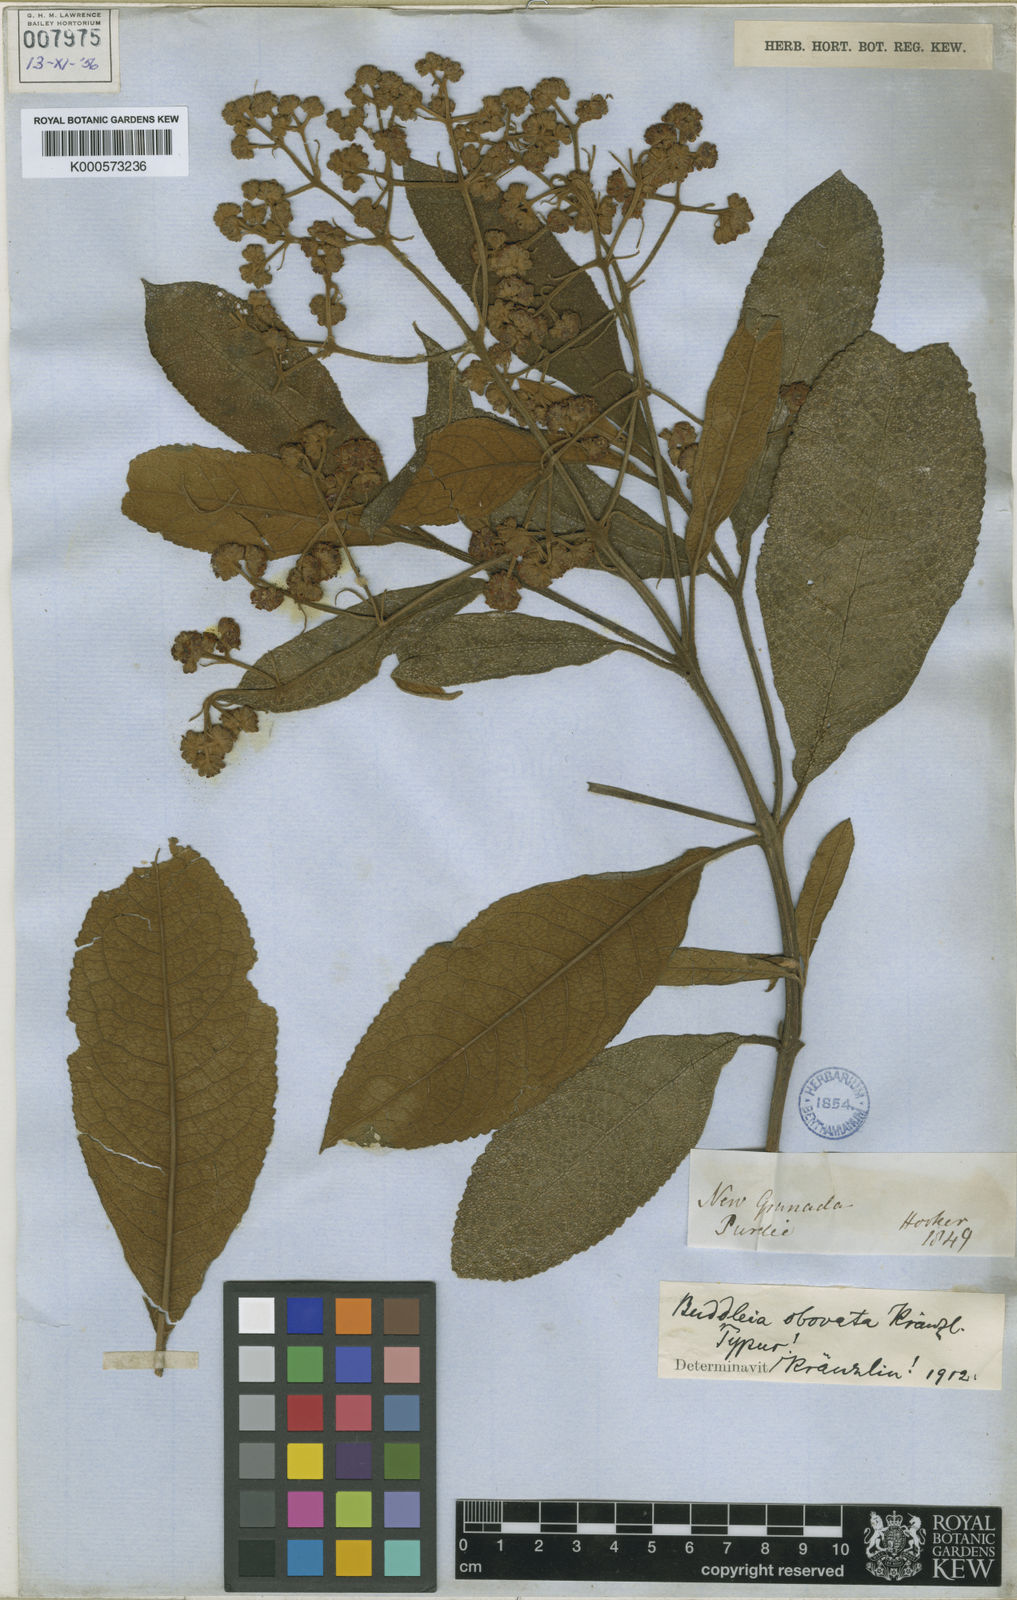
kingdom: Plantae
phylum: Tracheophyta
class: Magnoliopsida
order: Lamiales
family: Scrophulariaceae
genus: Buddleja
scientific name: Buddleja bullata
